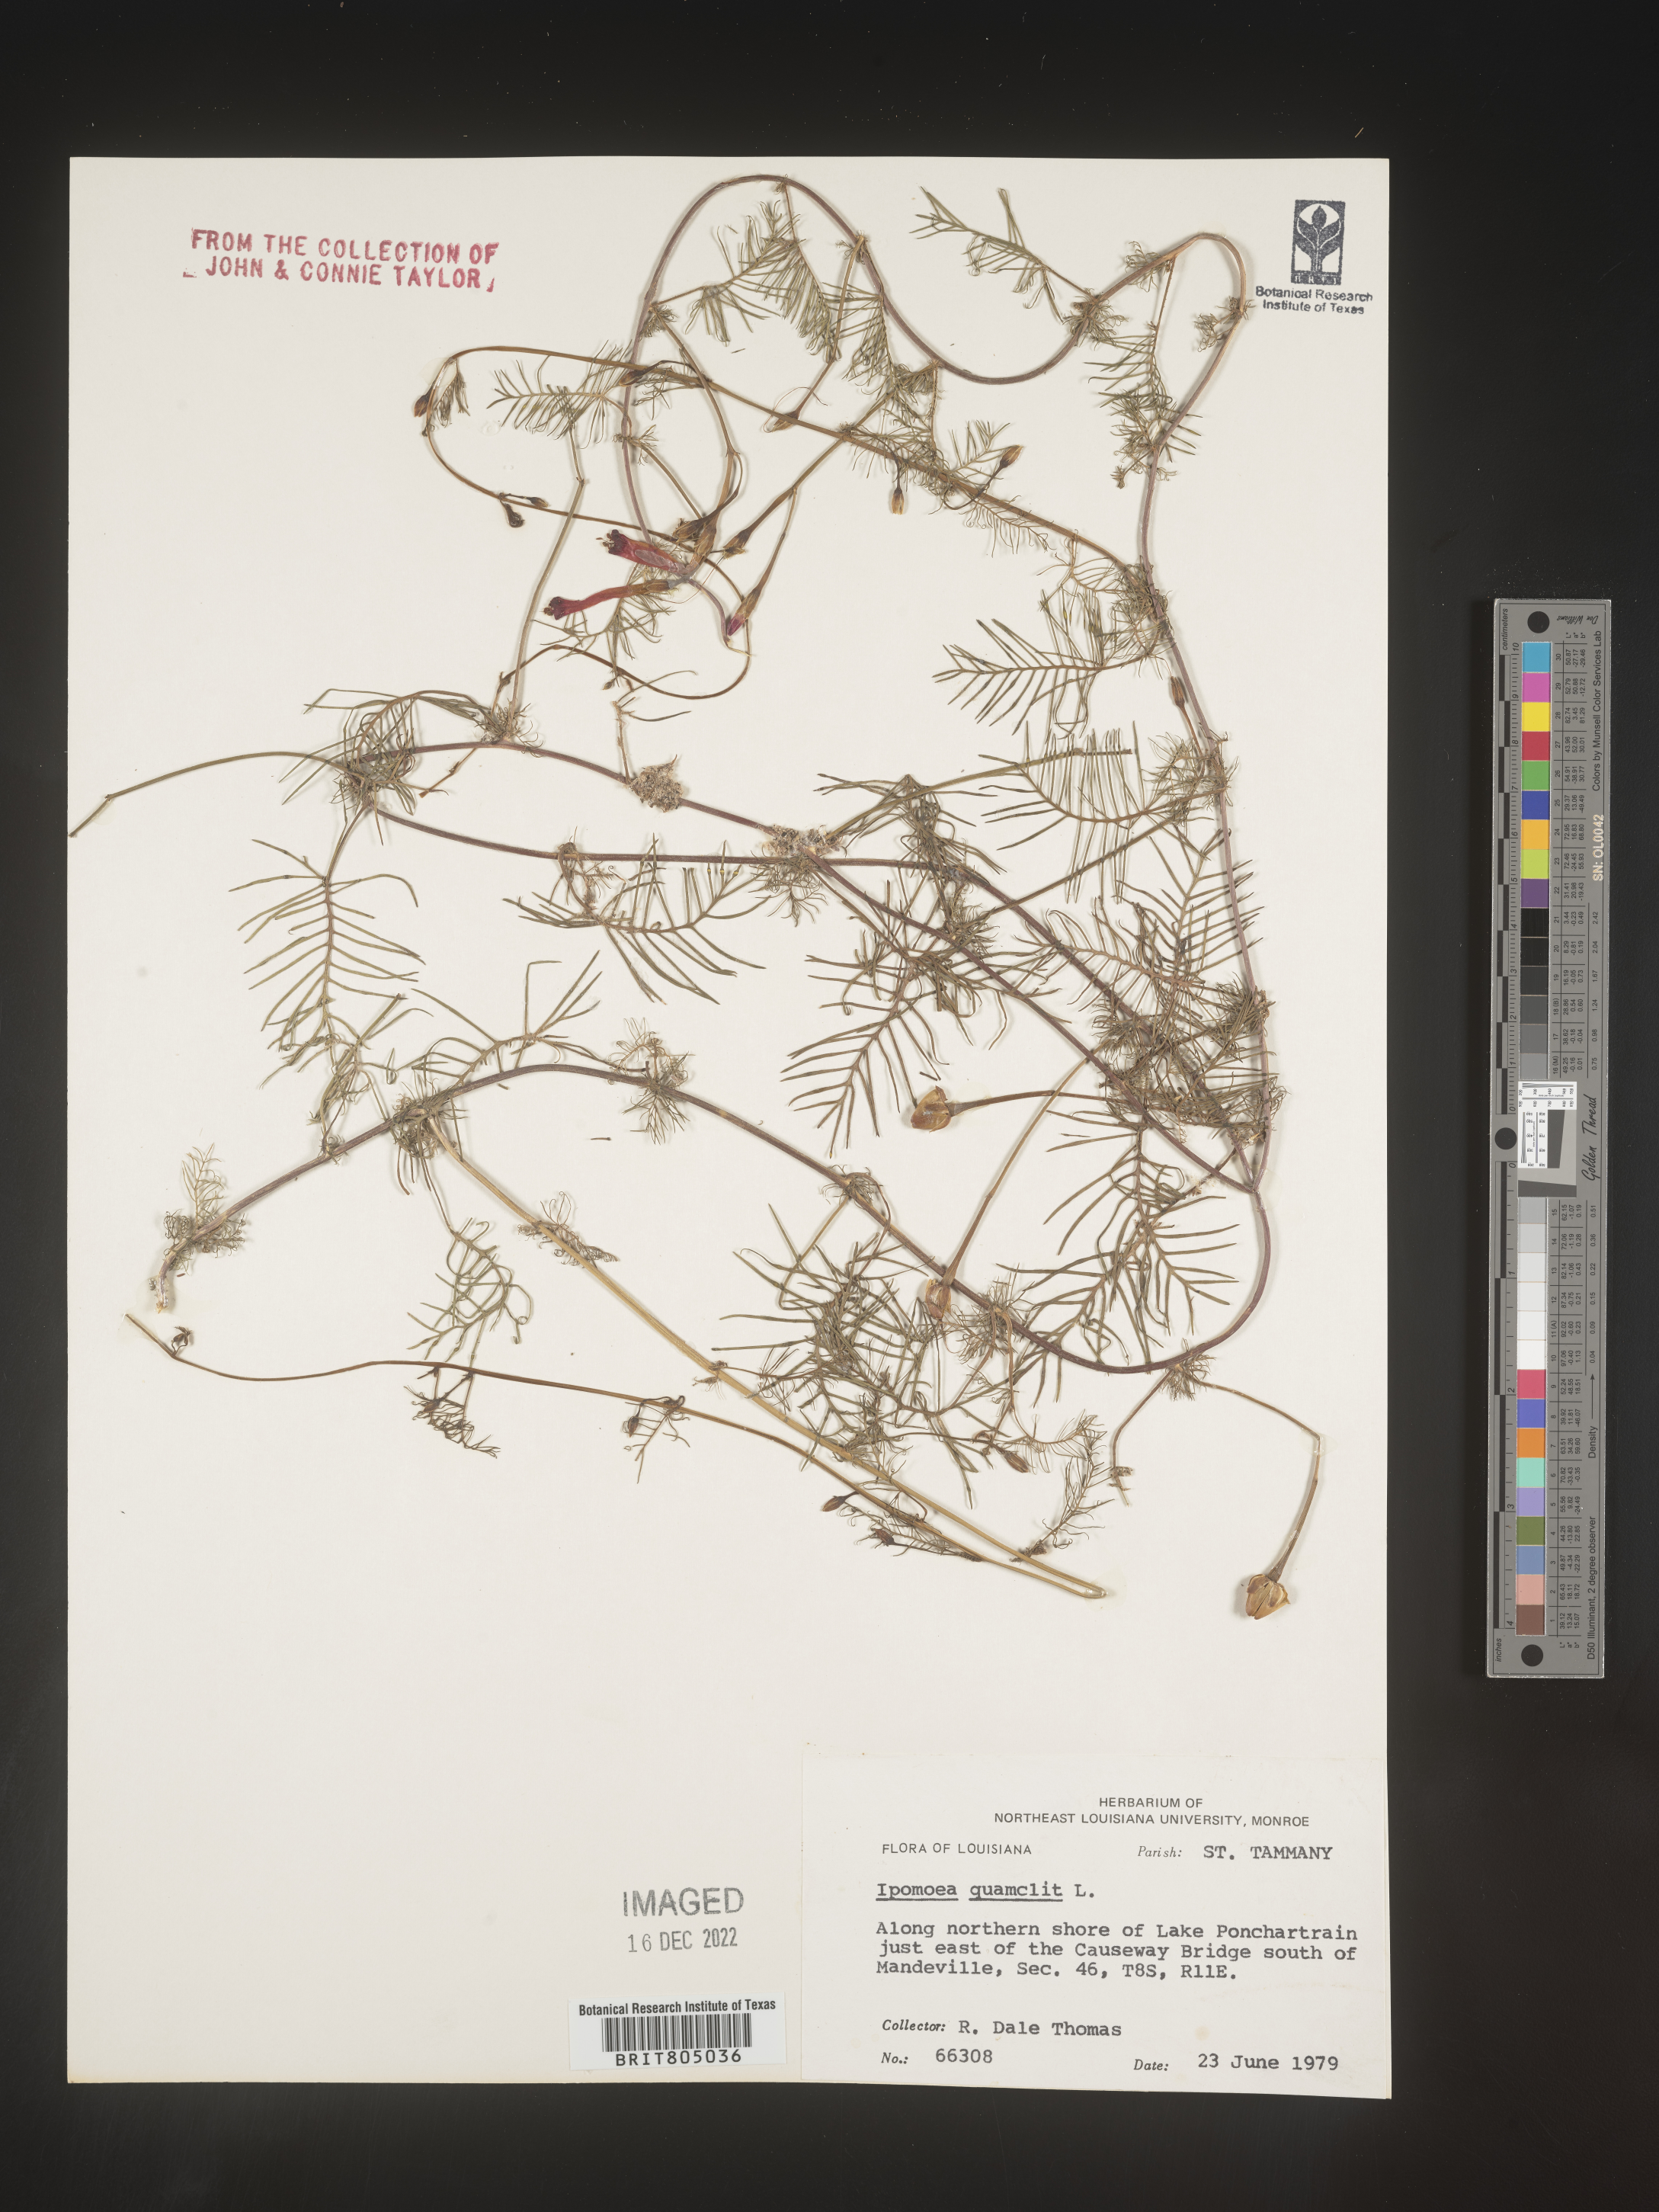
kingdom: Plantae
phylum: Tracheophyta
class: Magnoliopsida
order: Solanales
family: Convolvulaceae
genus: Ipomoea
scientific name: Ipomoea quamoclit
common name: Cypress vine
